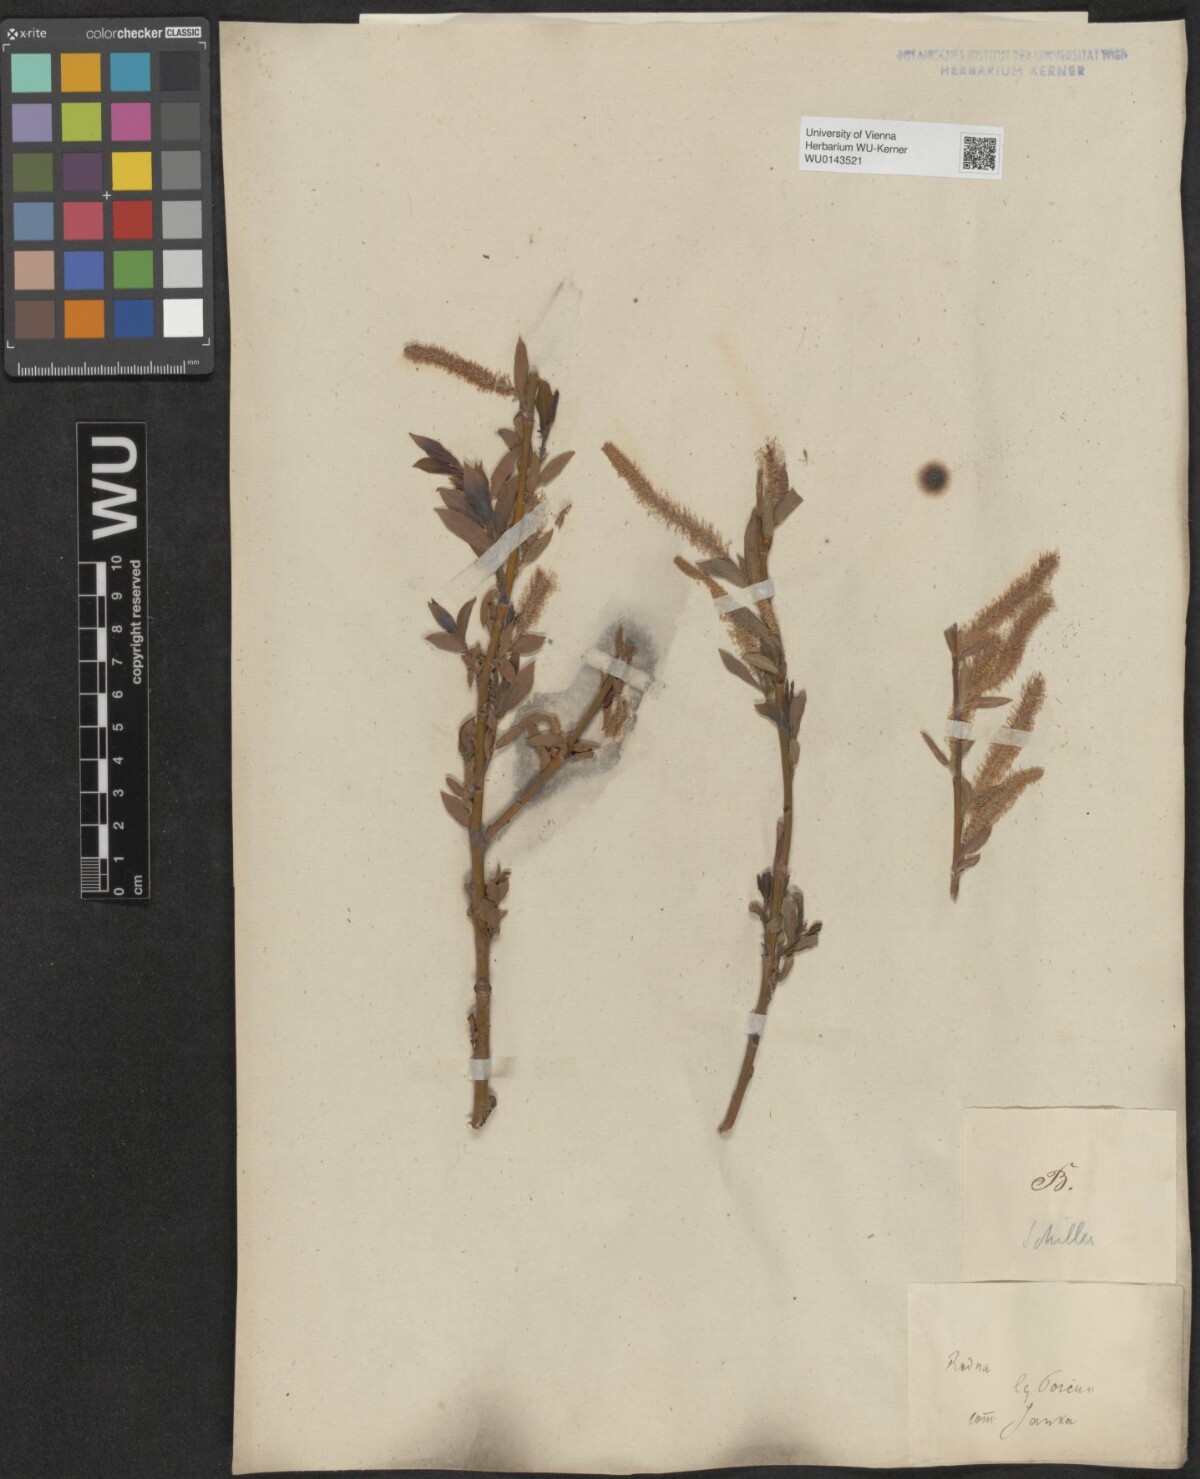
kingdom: Plantae
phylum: Tracheophyta
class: Magnoliopsida
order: Malpighiales
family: Salicaceae
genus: Salix
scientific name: Salix triandra
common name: Almond willow
